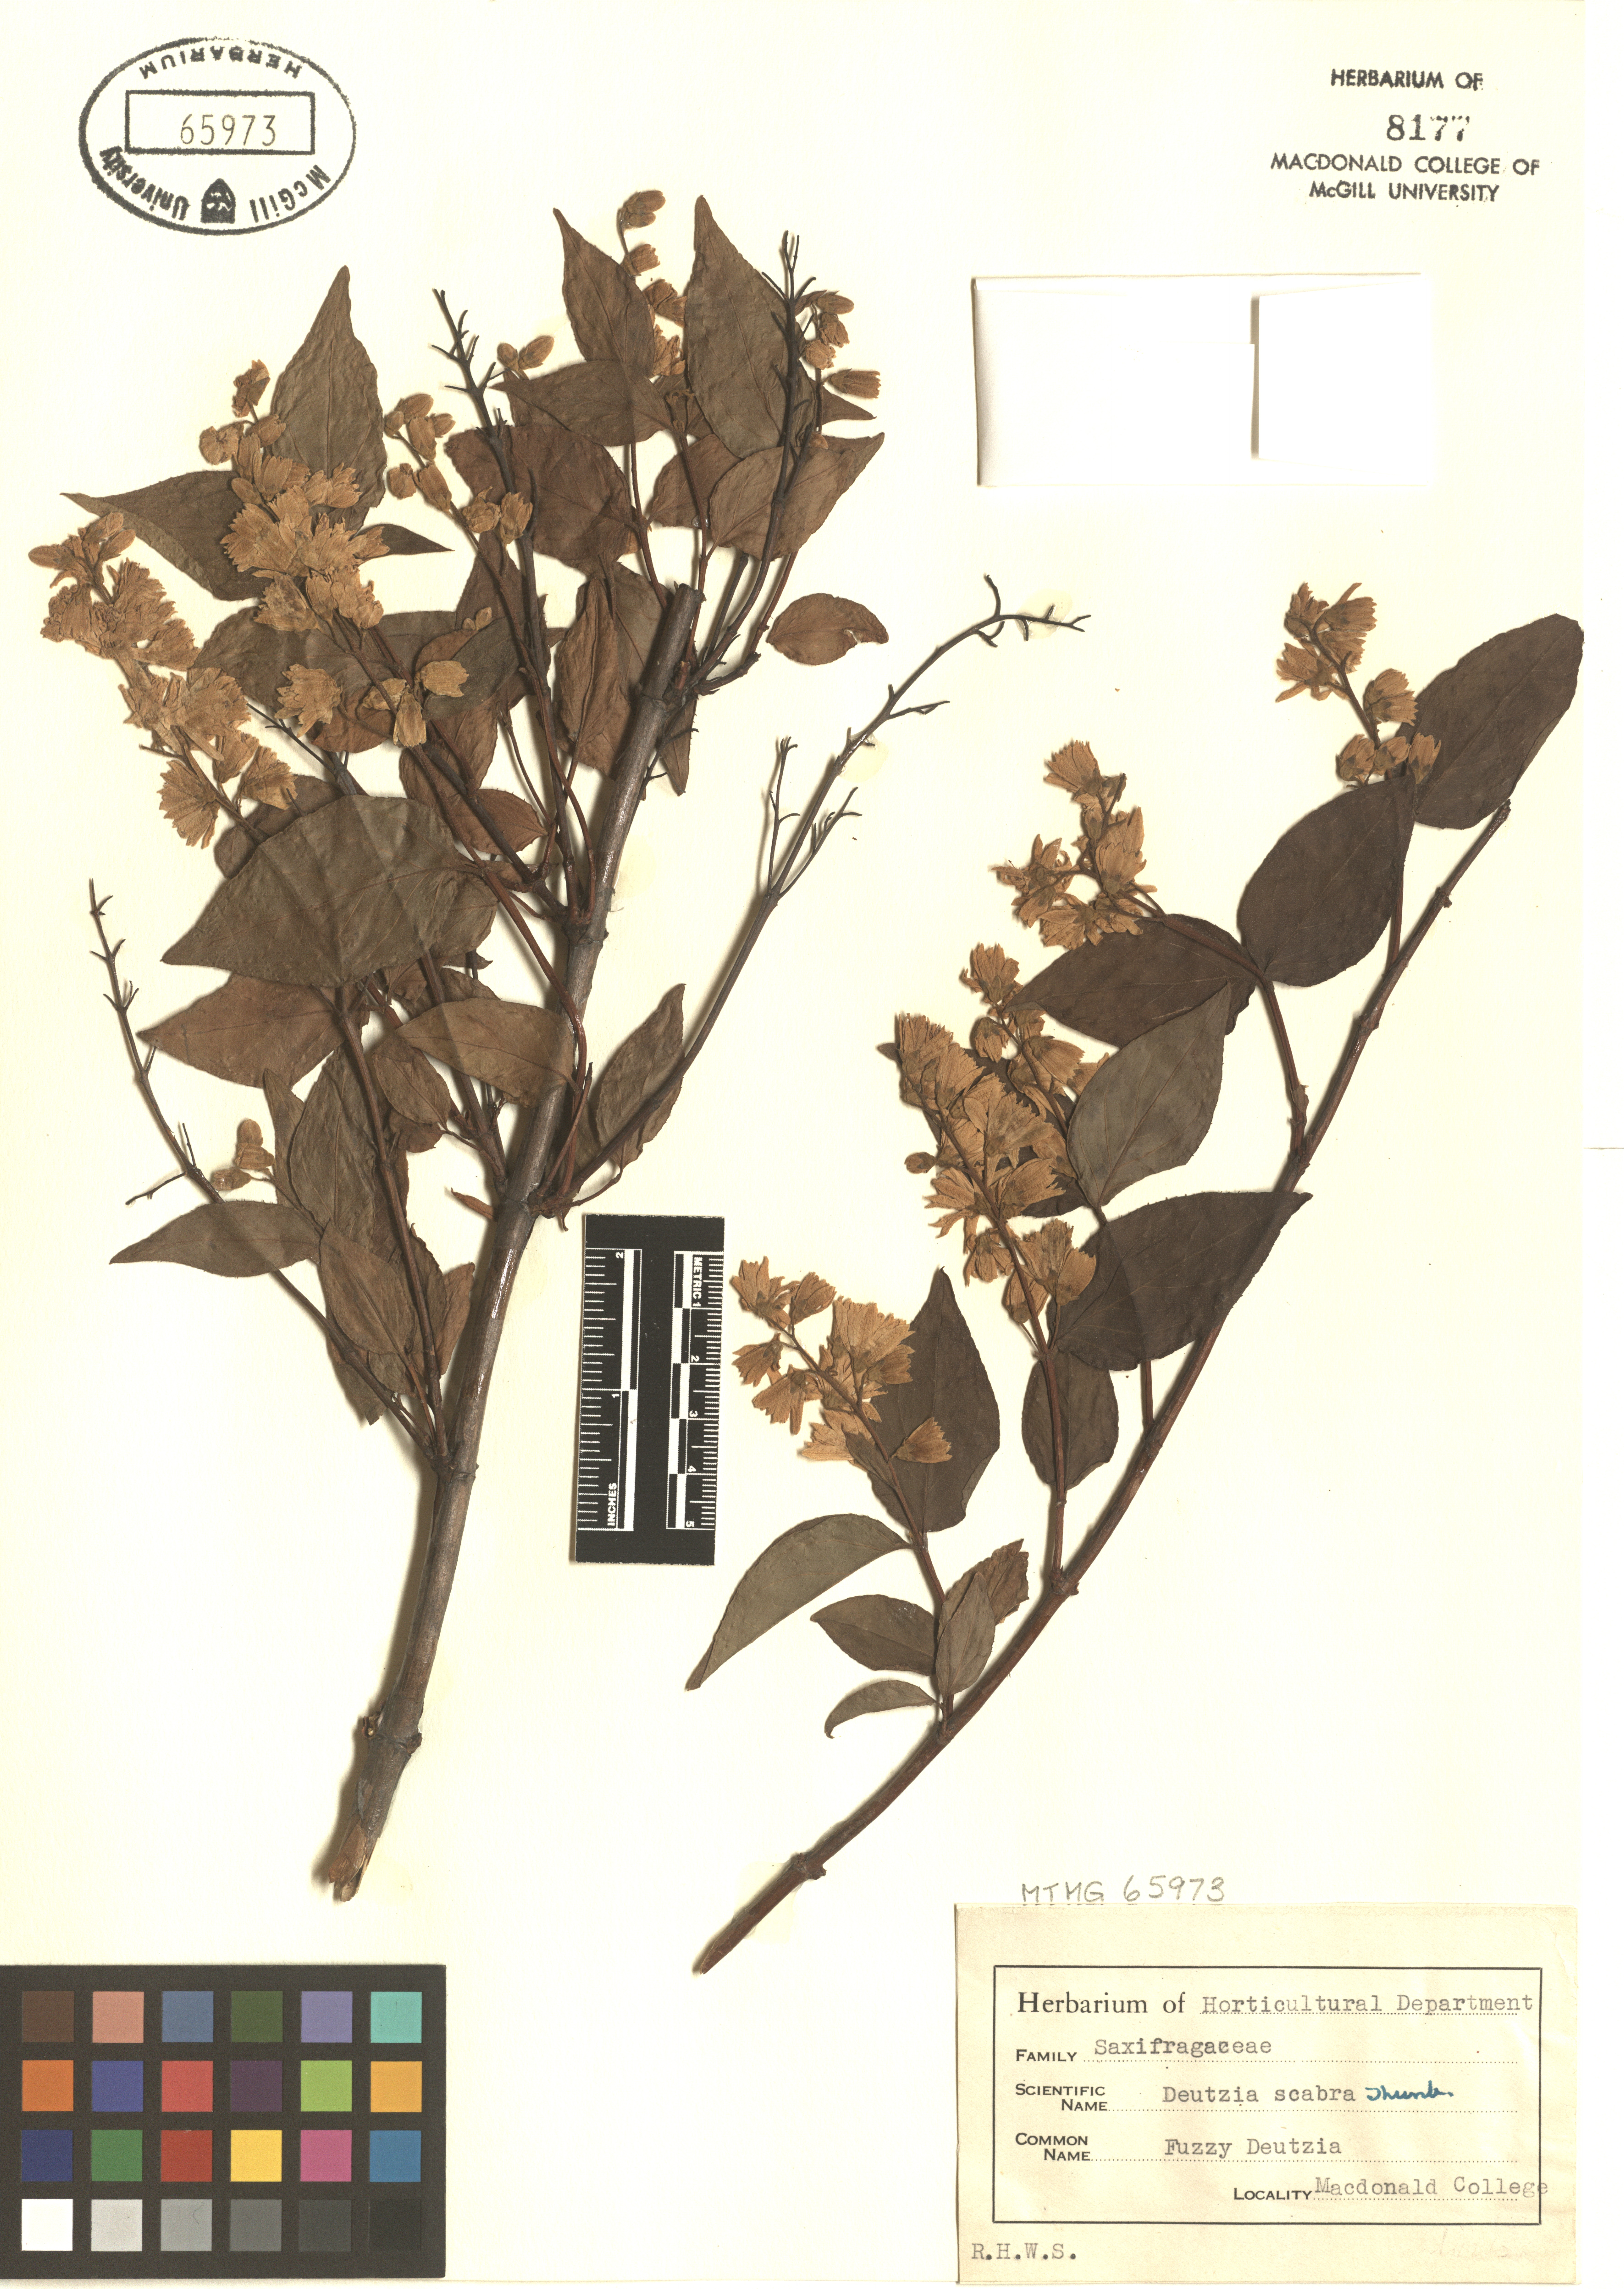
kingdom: Plantae
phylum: Tracheophyta
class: Magnoliopsida
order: Cornales
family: Hydrangeaceae
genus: Deutzia
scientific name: Deutzia scabra
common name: Deutzia
